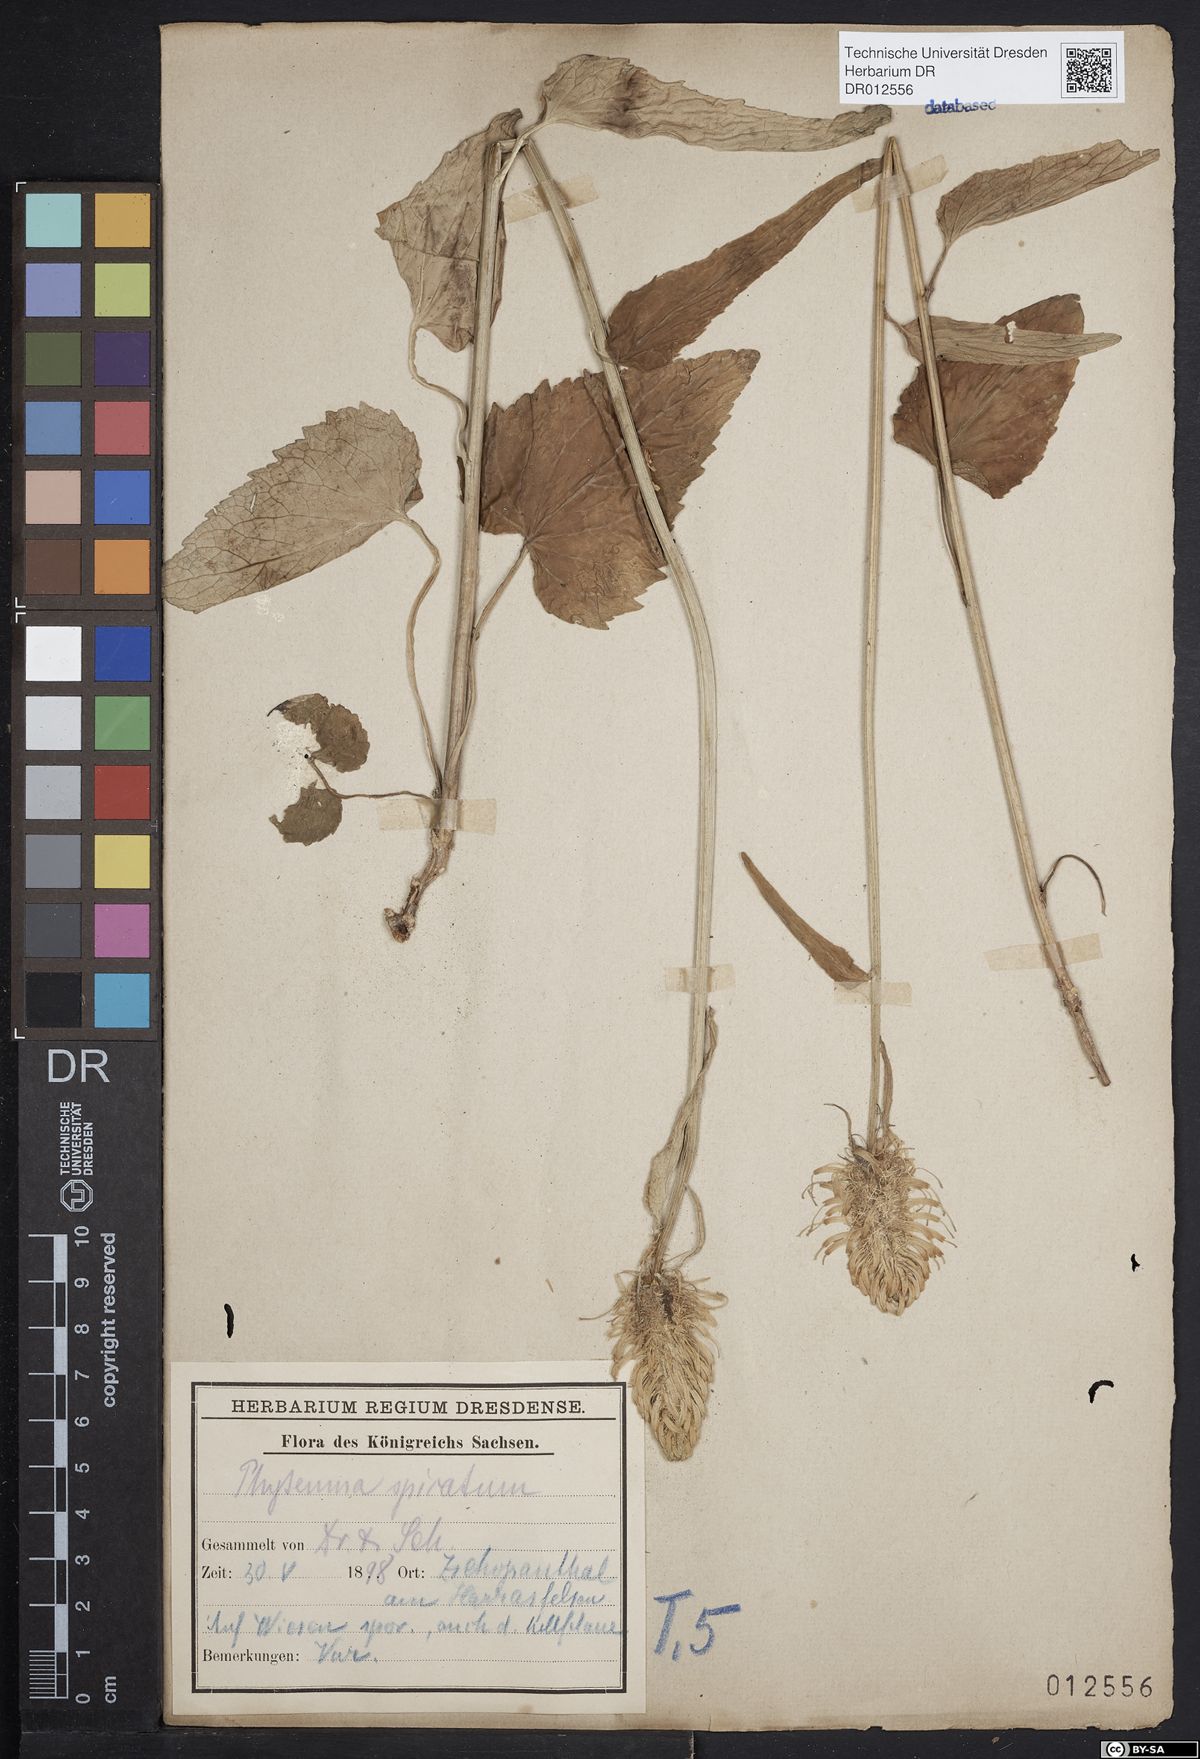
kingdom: Plantae
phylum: Tracheophyta
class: Magnoliopsida
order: Asterales
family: Campanulaceae
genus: Phyteuma
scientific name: Phyteuma spicatum
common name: Spiked rampion
